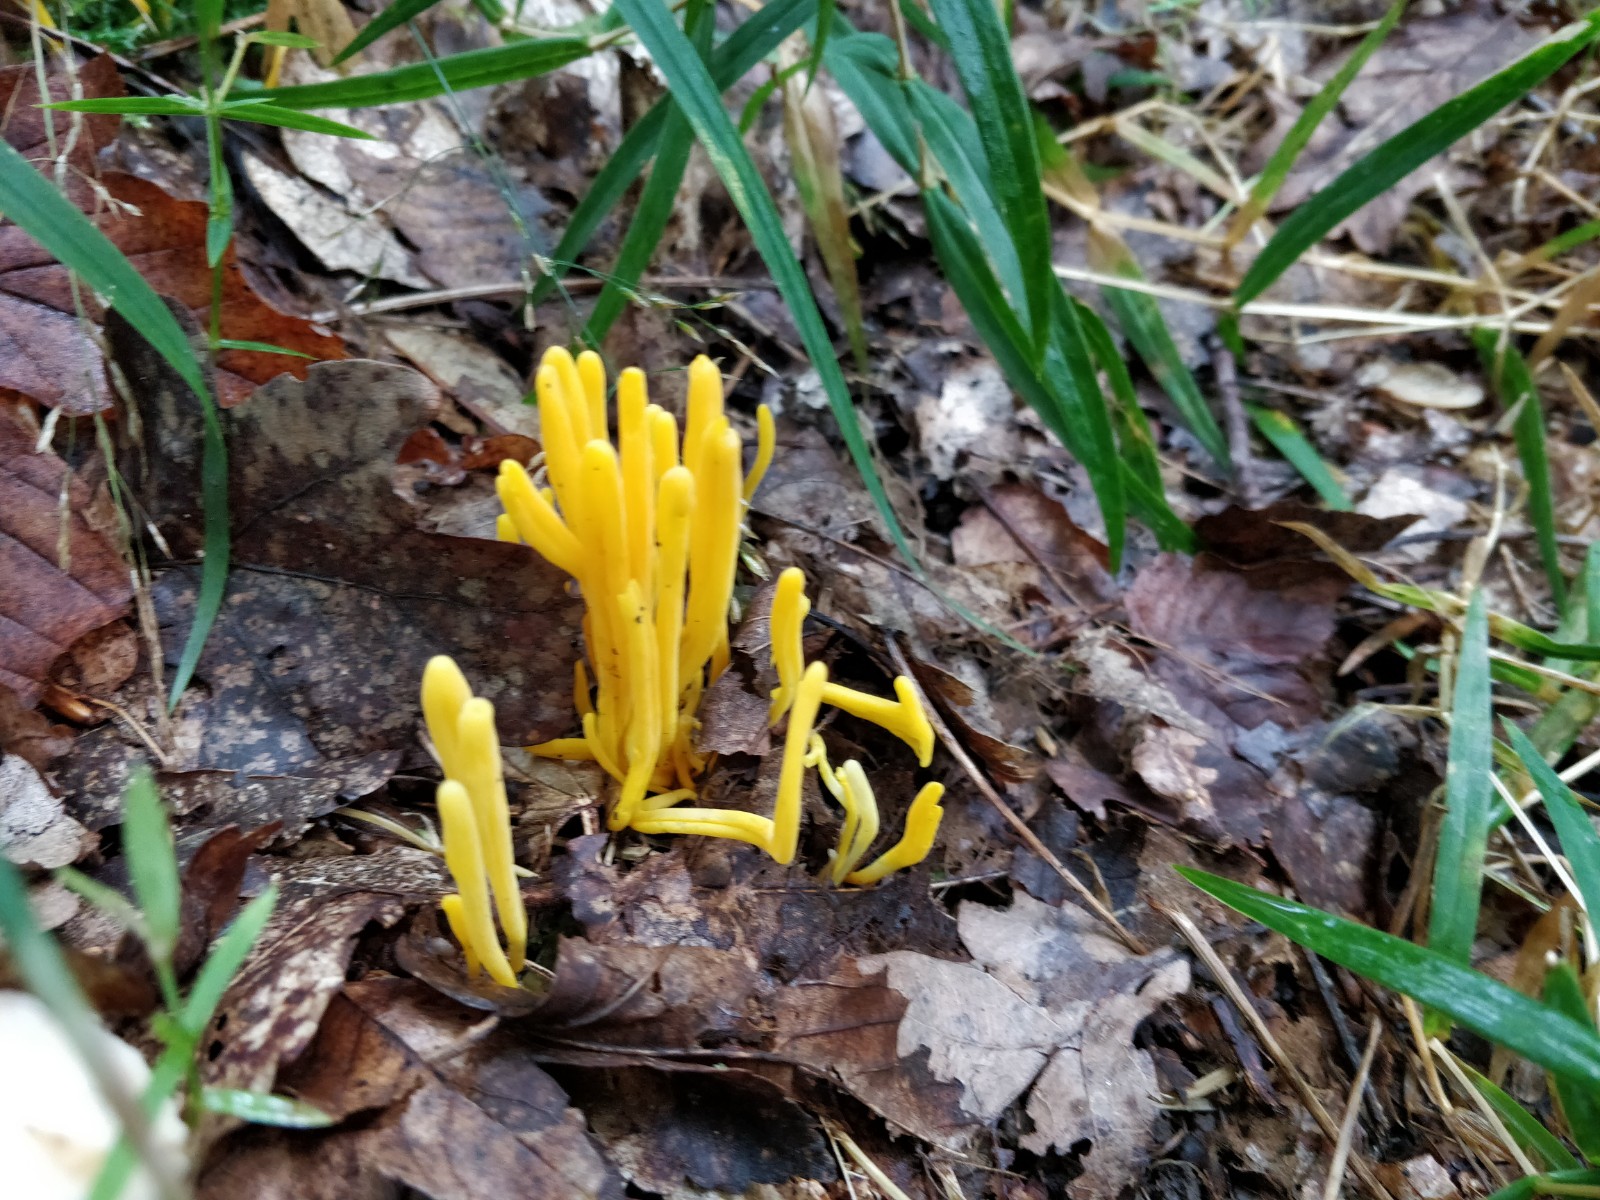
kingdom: Fungi
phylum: Basidiomycota
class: Agaricomycetes
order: Agaricales
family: Clavariaceae
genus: Clavulinopsis
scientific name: Clavulinopsis
